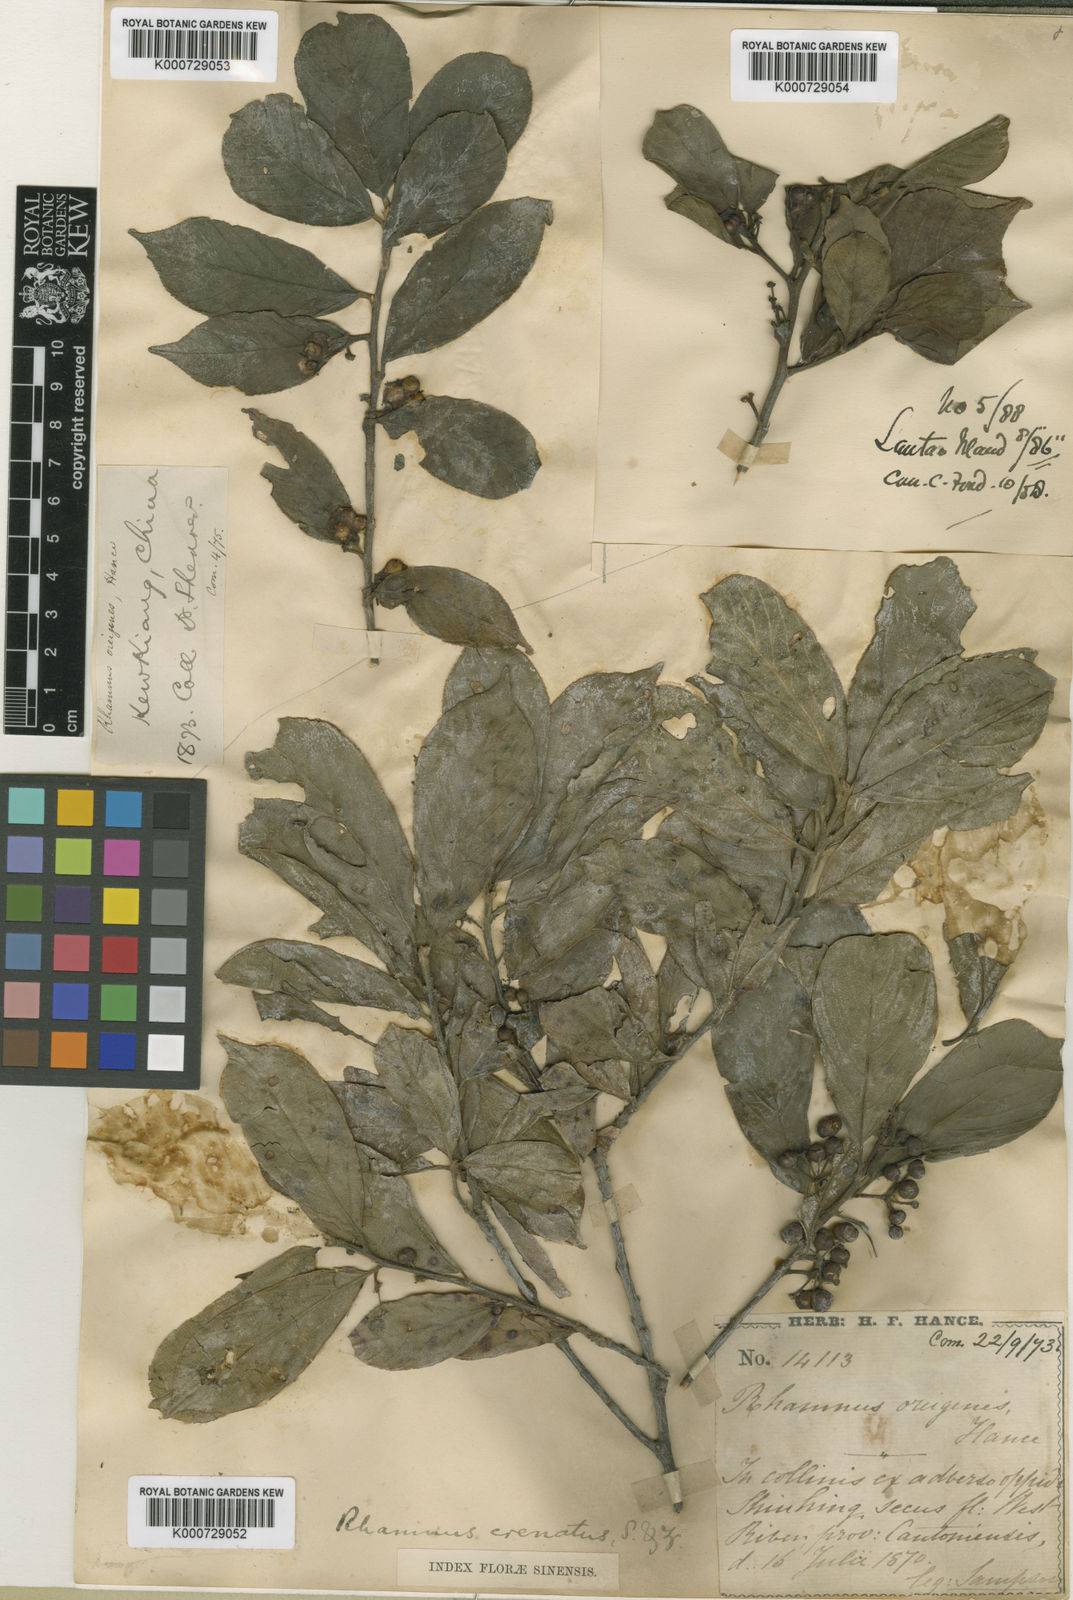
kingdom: Plantae
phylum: Tracheophyta
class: Magnoliopsida
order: Rosales
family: Rhamnaceae
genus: Frangula
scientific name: Frangula crenata
